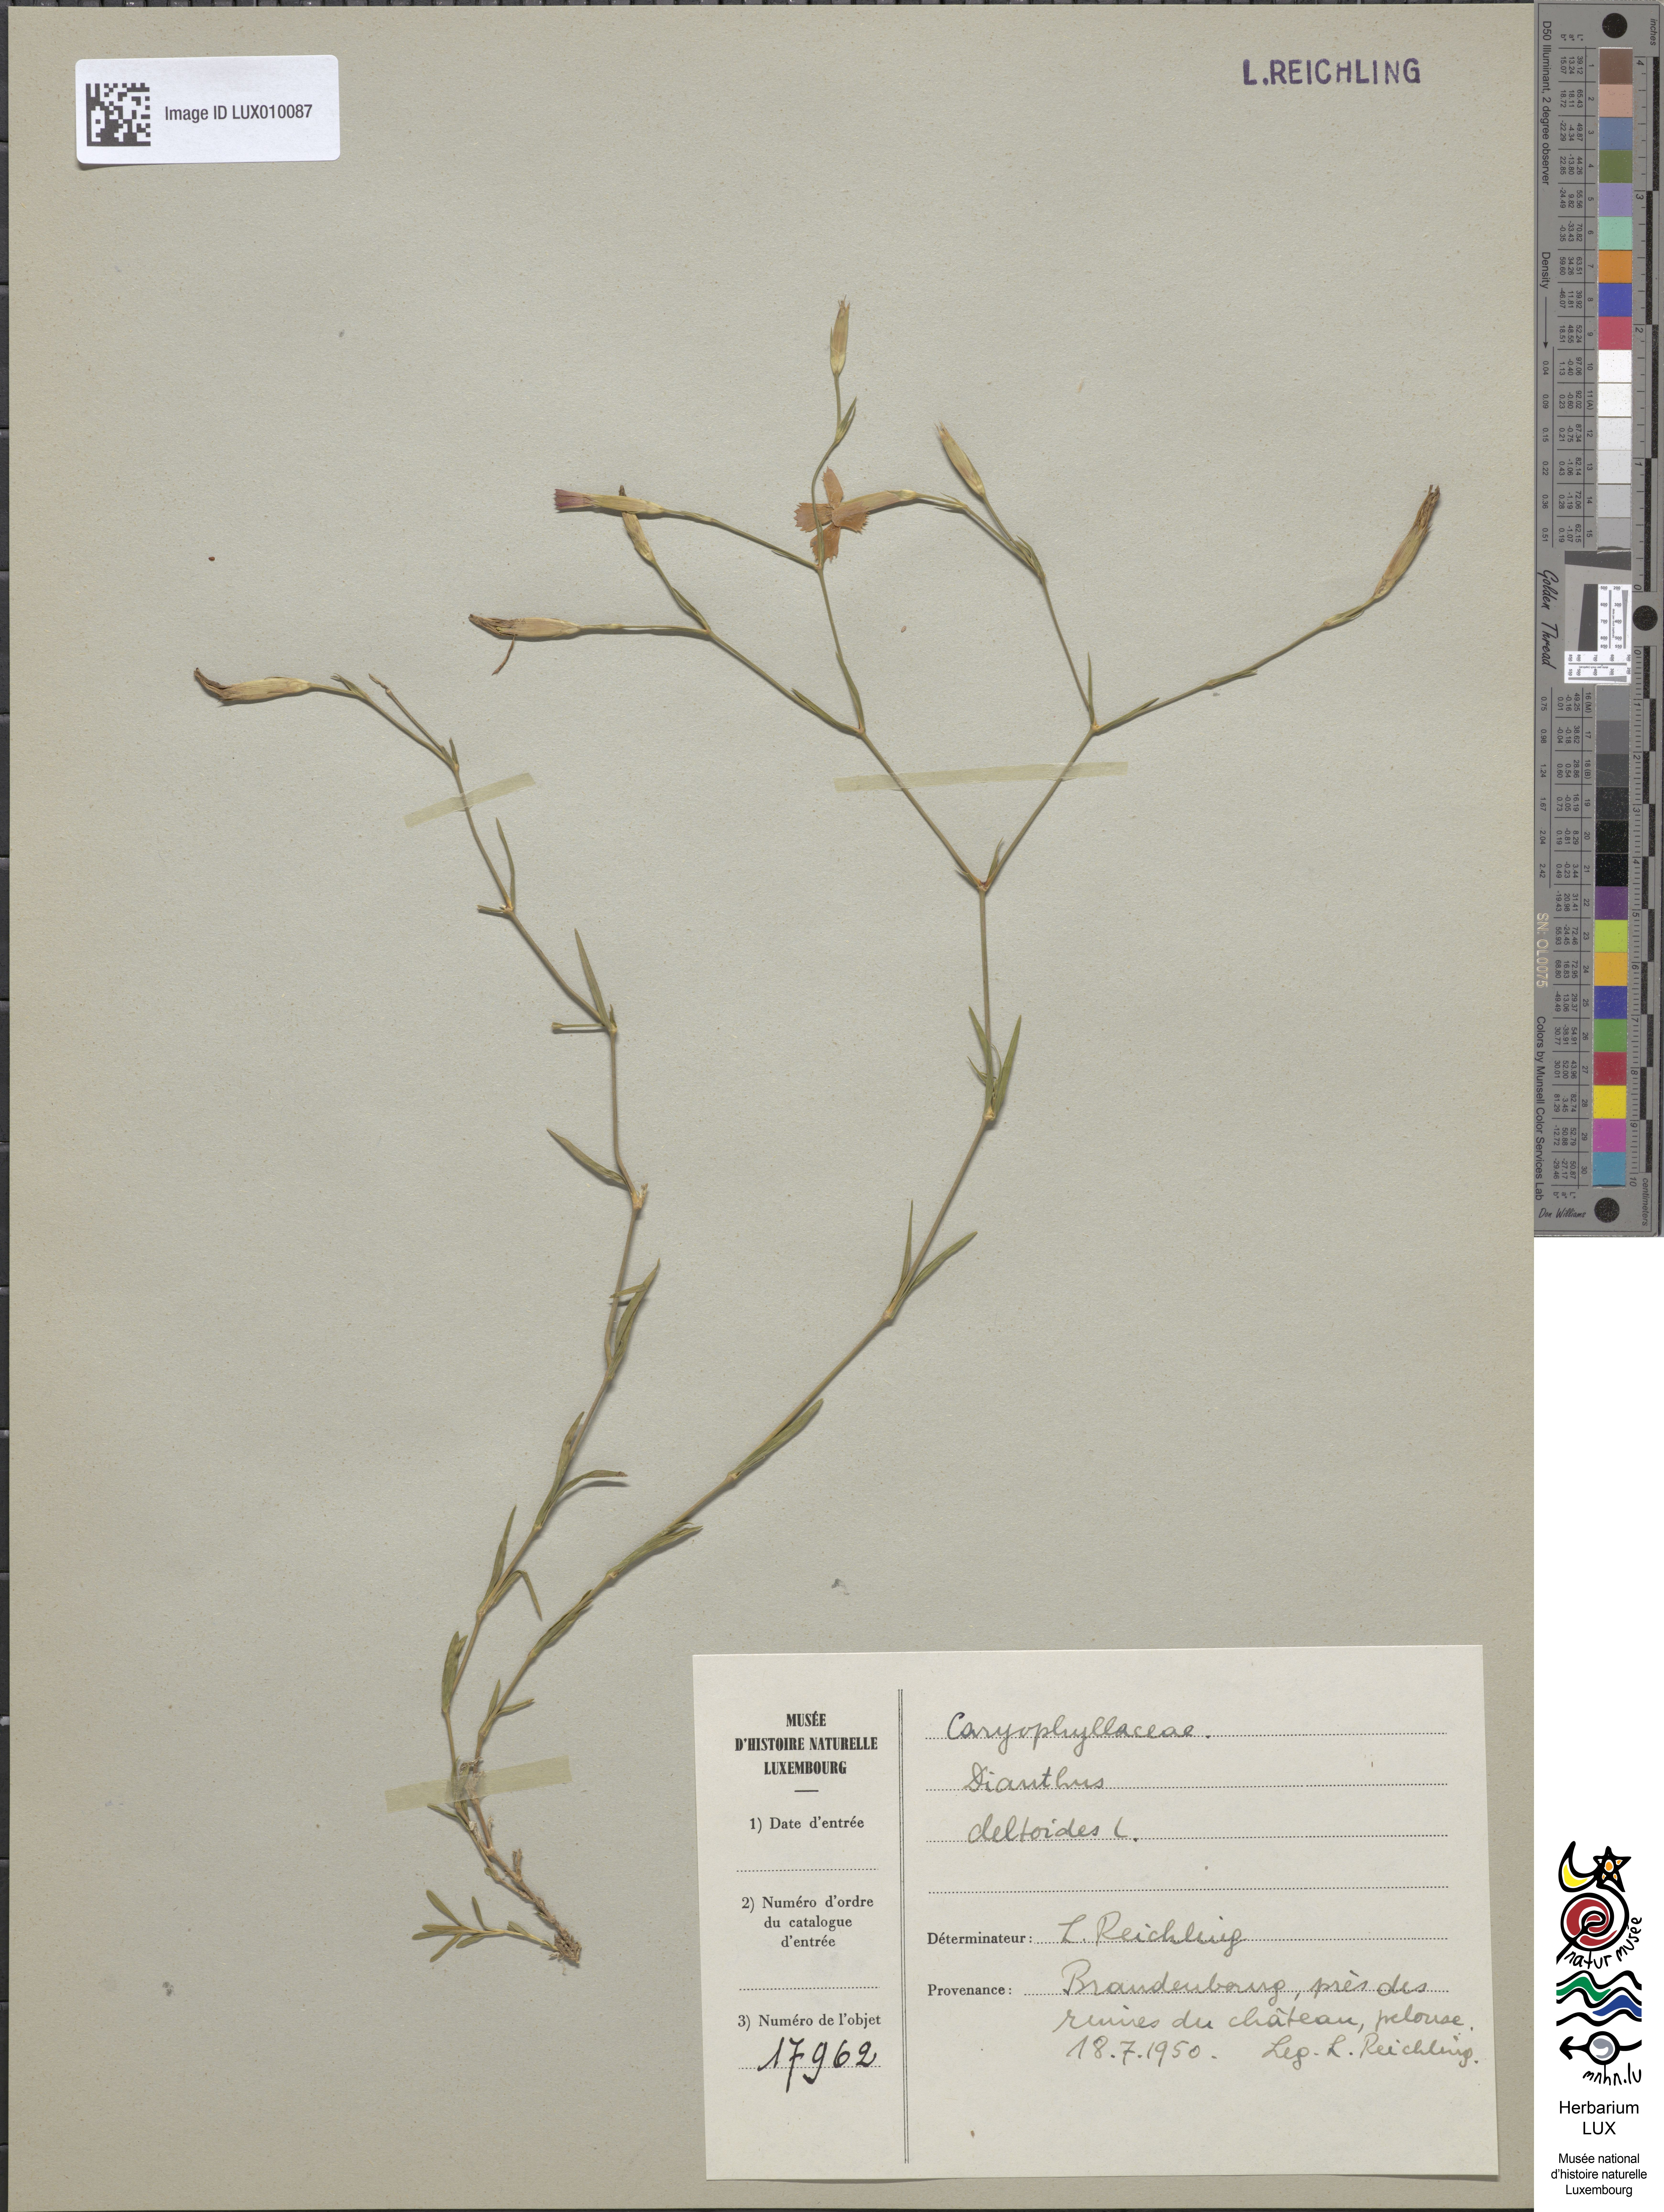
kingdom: Plantae
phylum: Tracheophyta
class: Magnoliopsida
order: Caryophyllales
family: Caryophyllaceae
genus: Dianthus
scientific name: Dianthus deltoides
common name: Maiden pink
